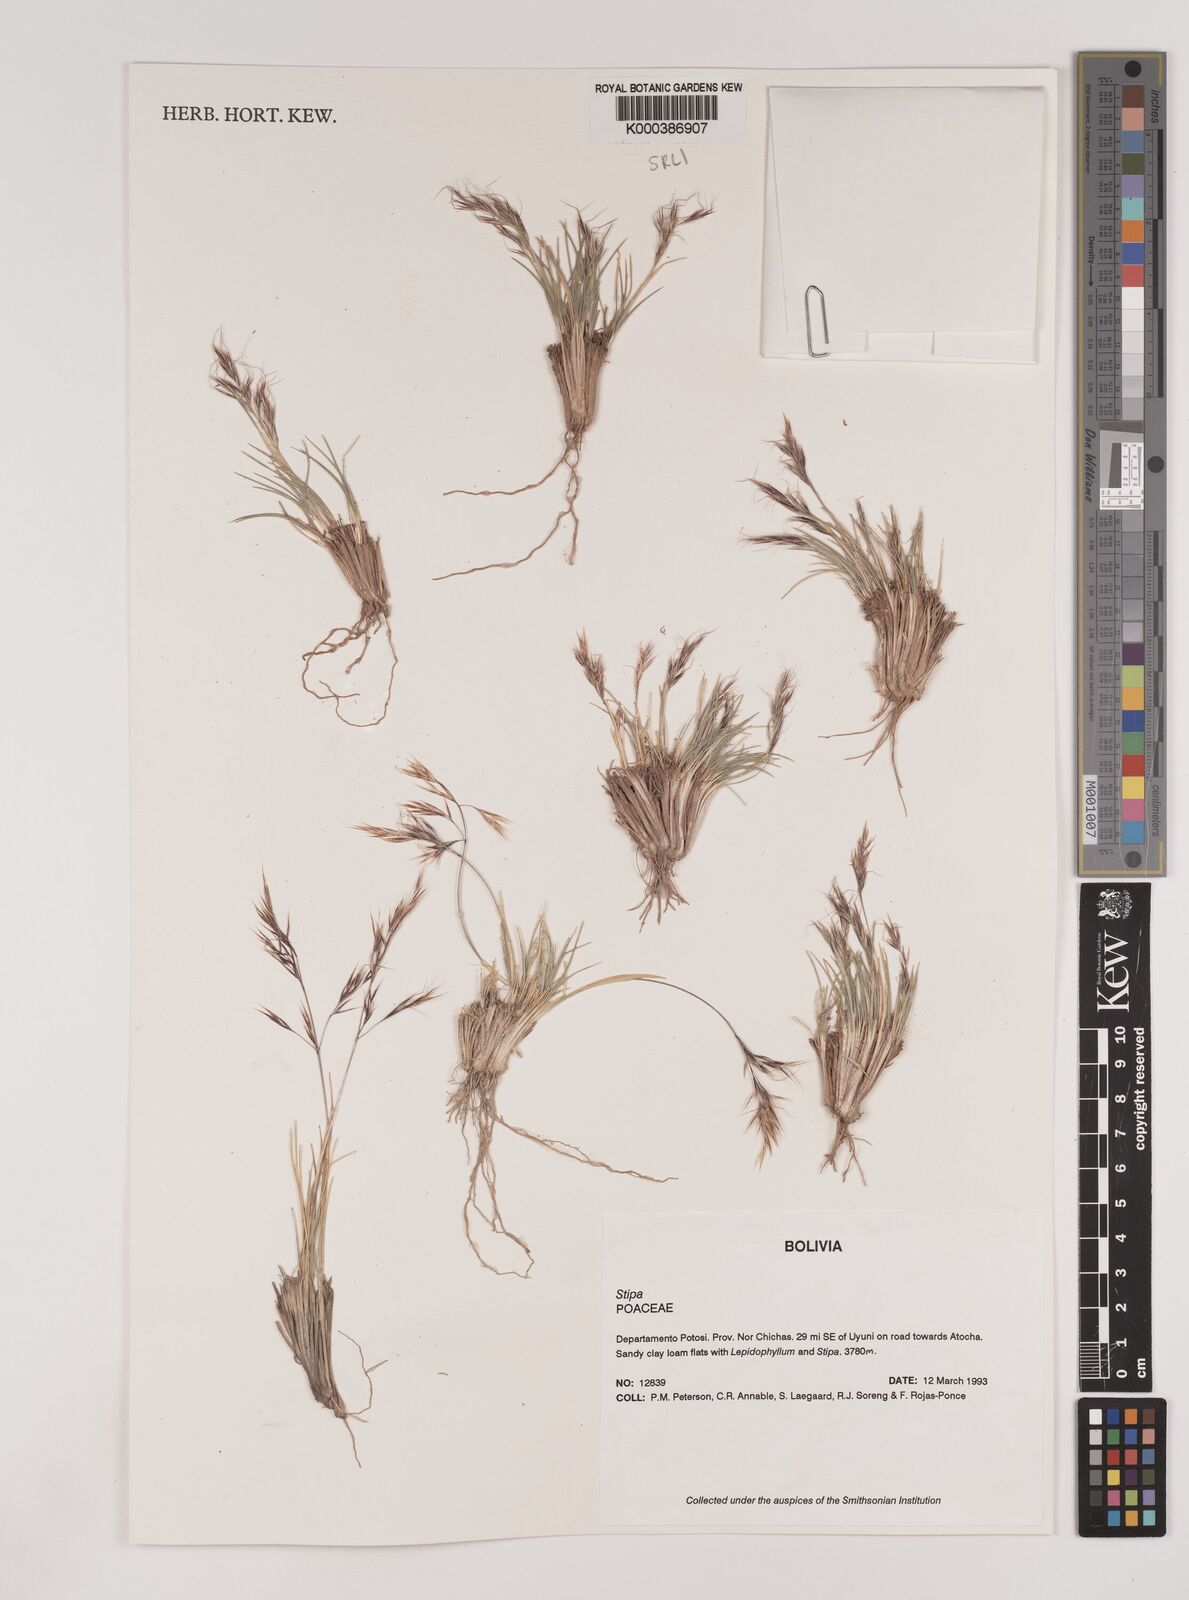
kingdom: Plantae
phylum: Tracheophyta
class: Liliopsida
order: Poales
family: Poaceae
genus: Nassella
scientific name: Nassella nardoides
